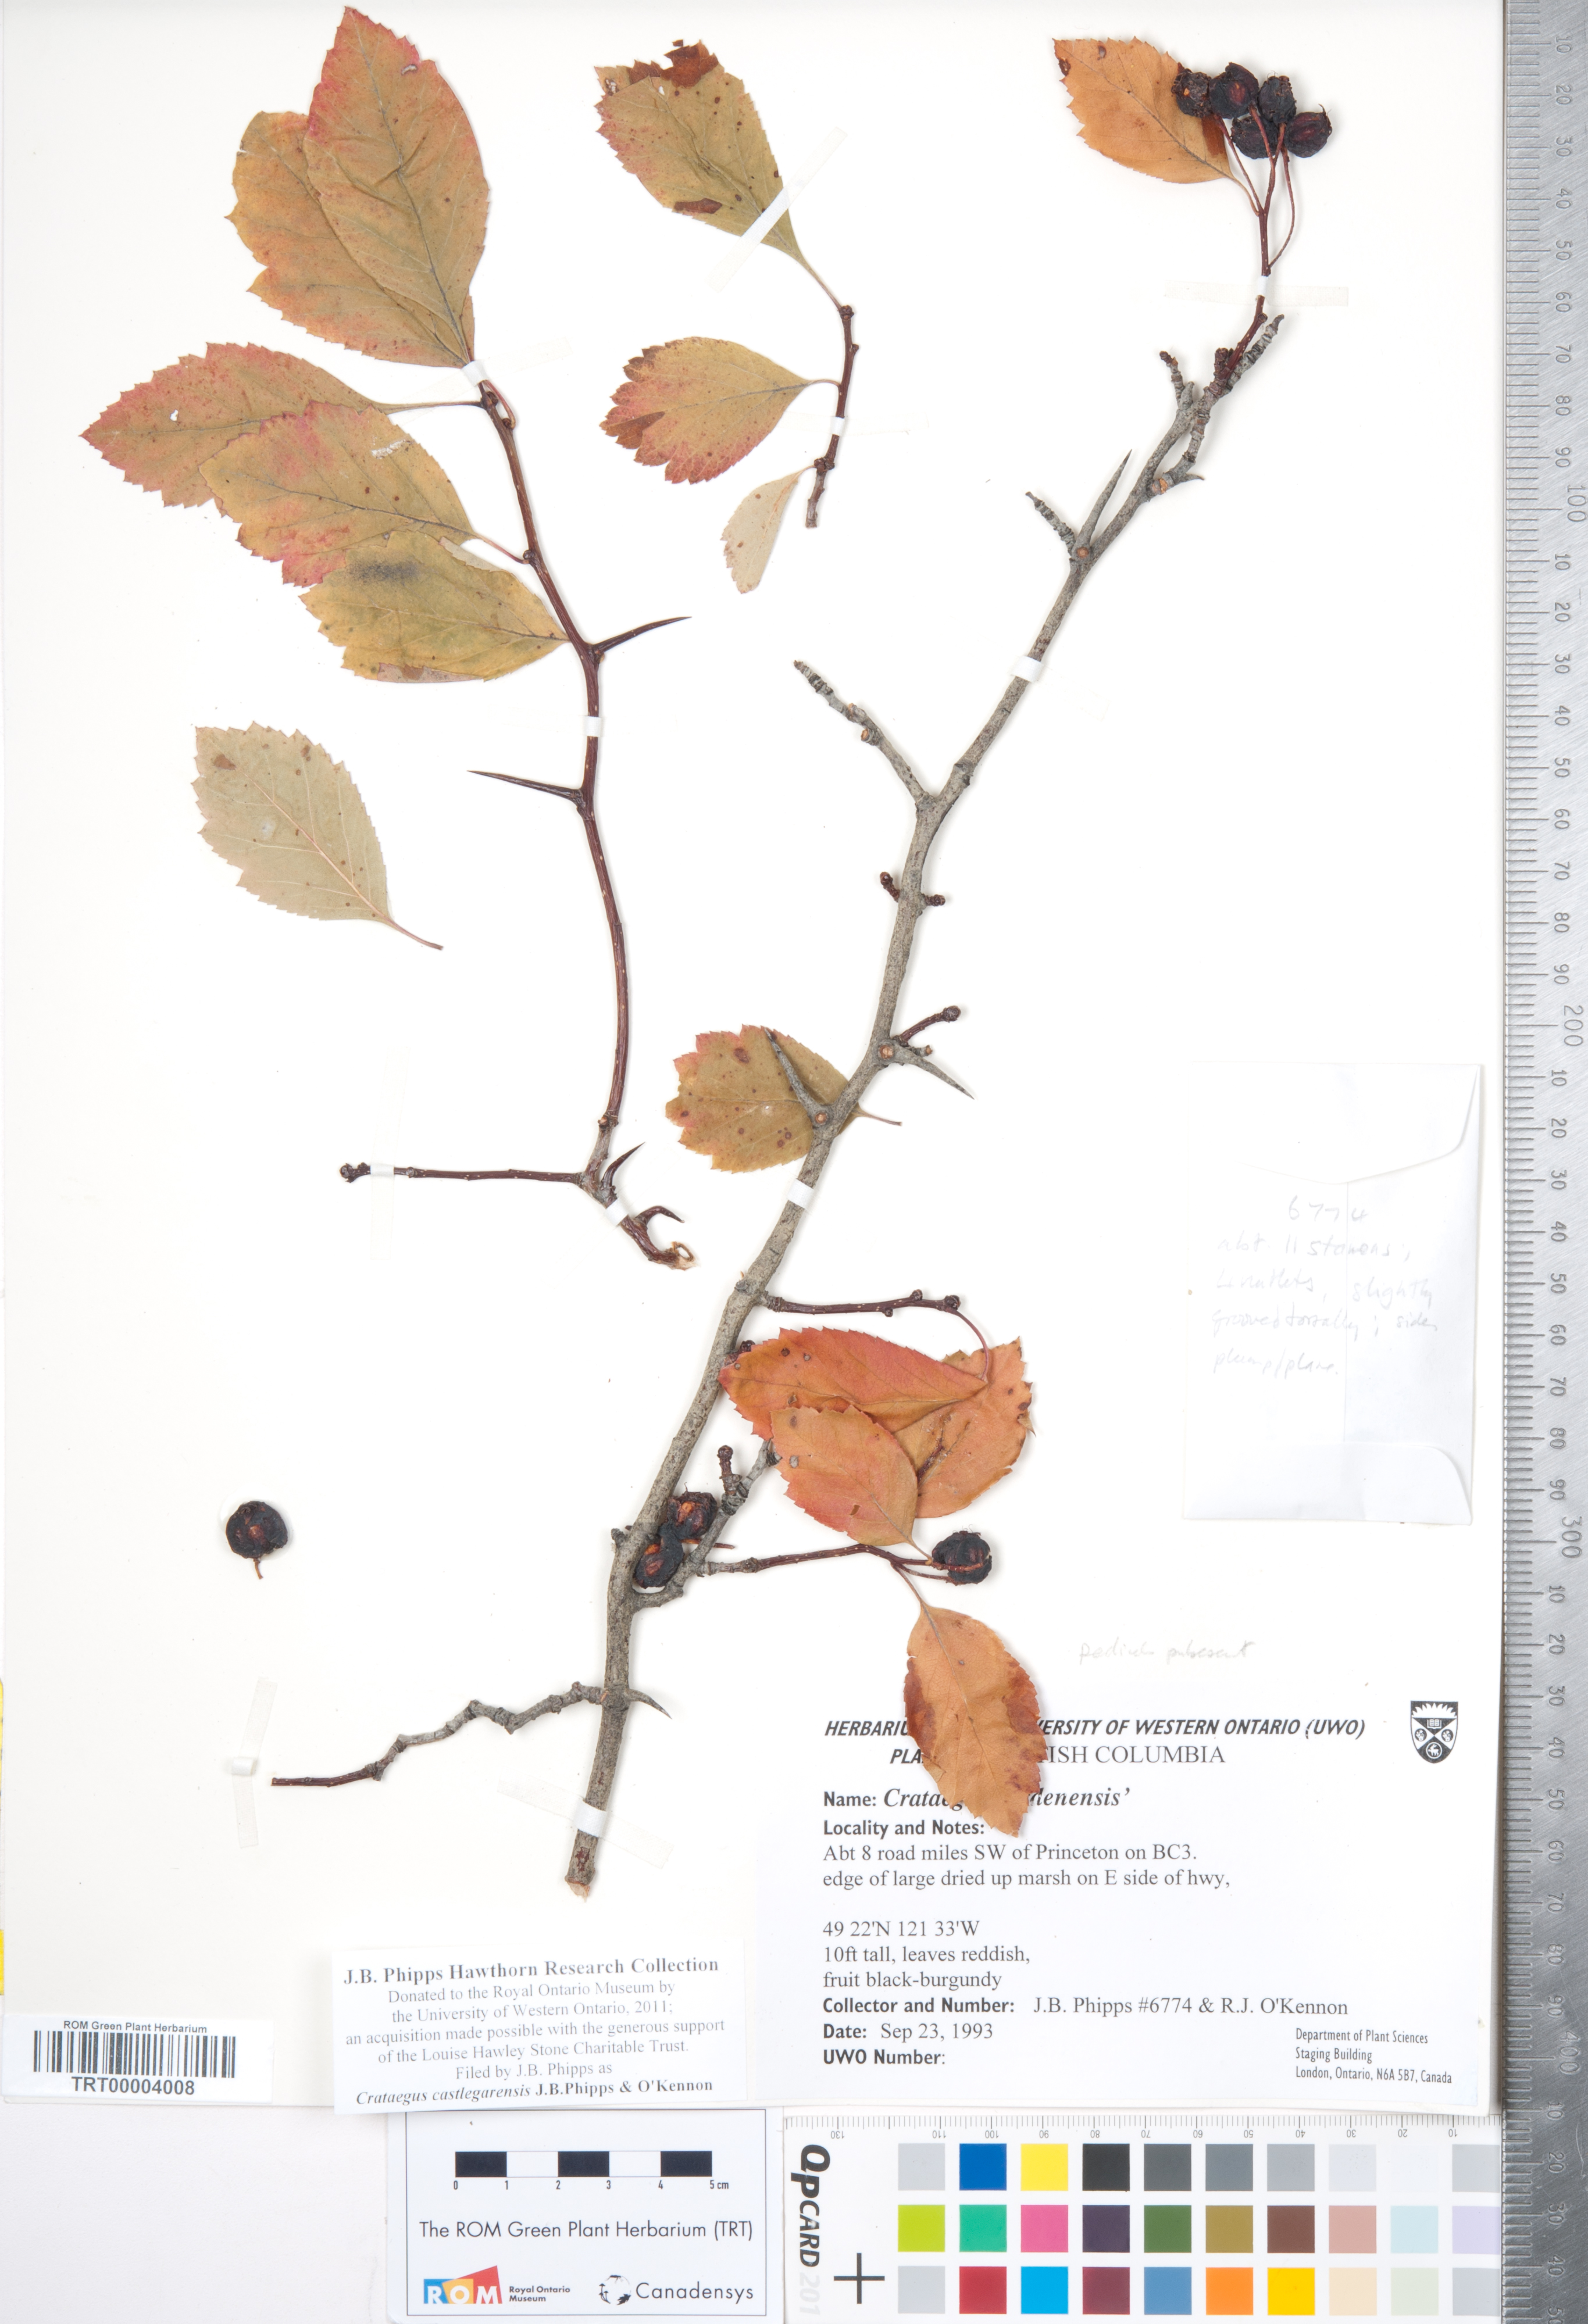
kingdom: Plantae
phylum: Tracheophyta
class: Magnoliopsida
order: Rosales
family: Rosaceae
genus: Crataegus
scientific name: Crataegus castlegarensis
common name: Castlegar hawthorn
